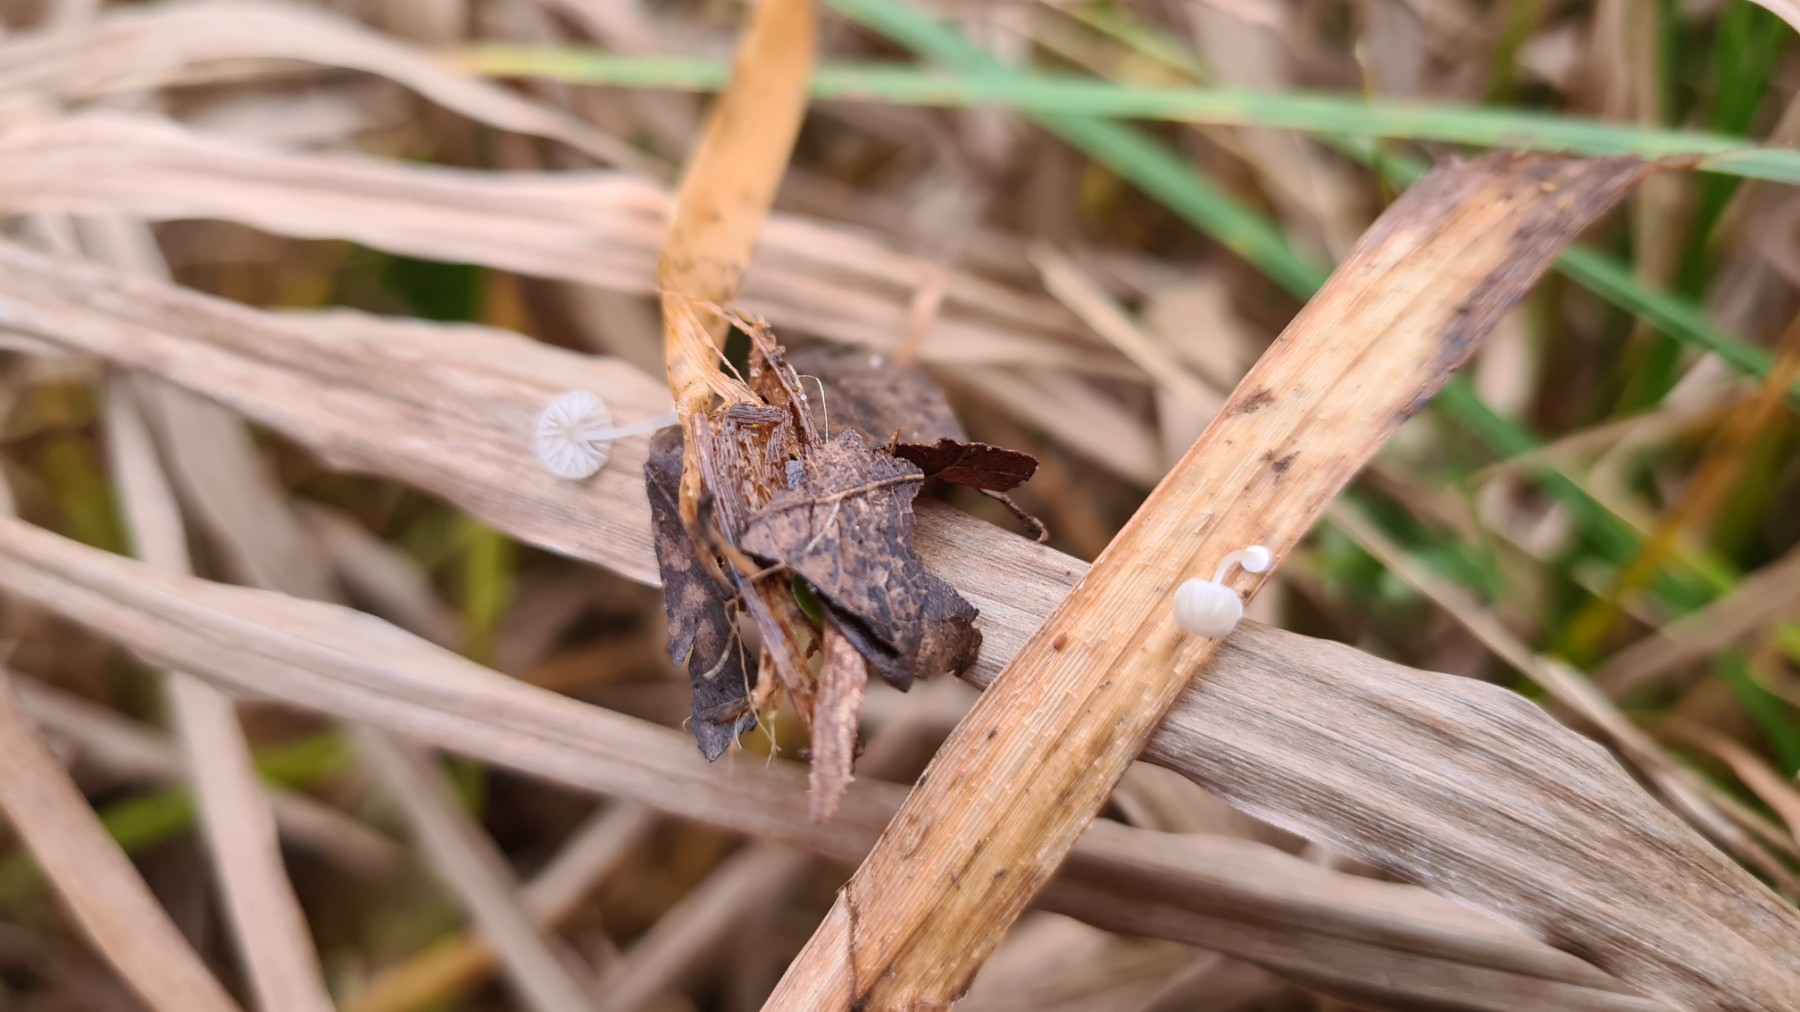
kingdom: Fungi
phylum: Basidiomycota
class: Agaricomycetes
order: Agaricales
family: Mycenaceae
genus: Mycena
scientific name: Mycena bulbosa
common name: siv-huesvamp
